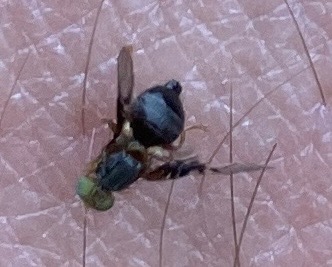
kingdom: Animalia
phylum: Arthropoda
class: Insecta
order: Diptera
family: Tephritidae
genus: Anomoia
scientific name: Anomoia purmunda
